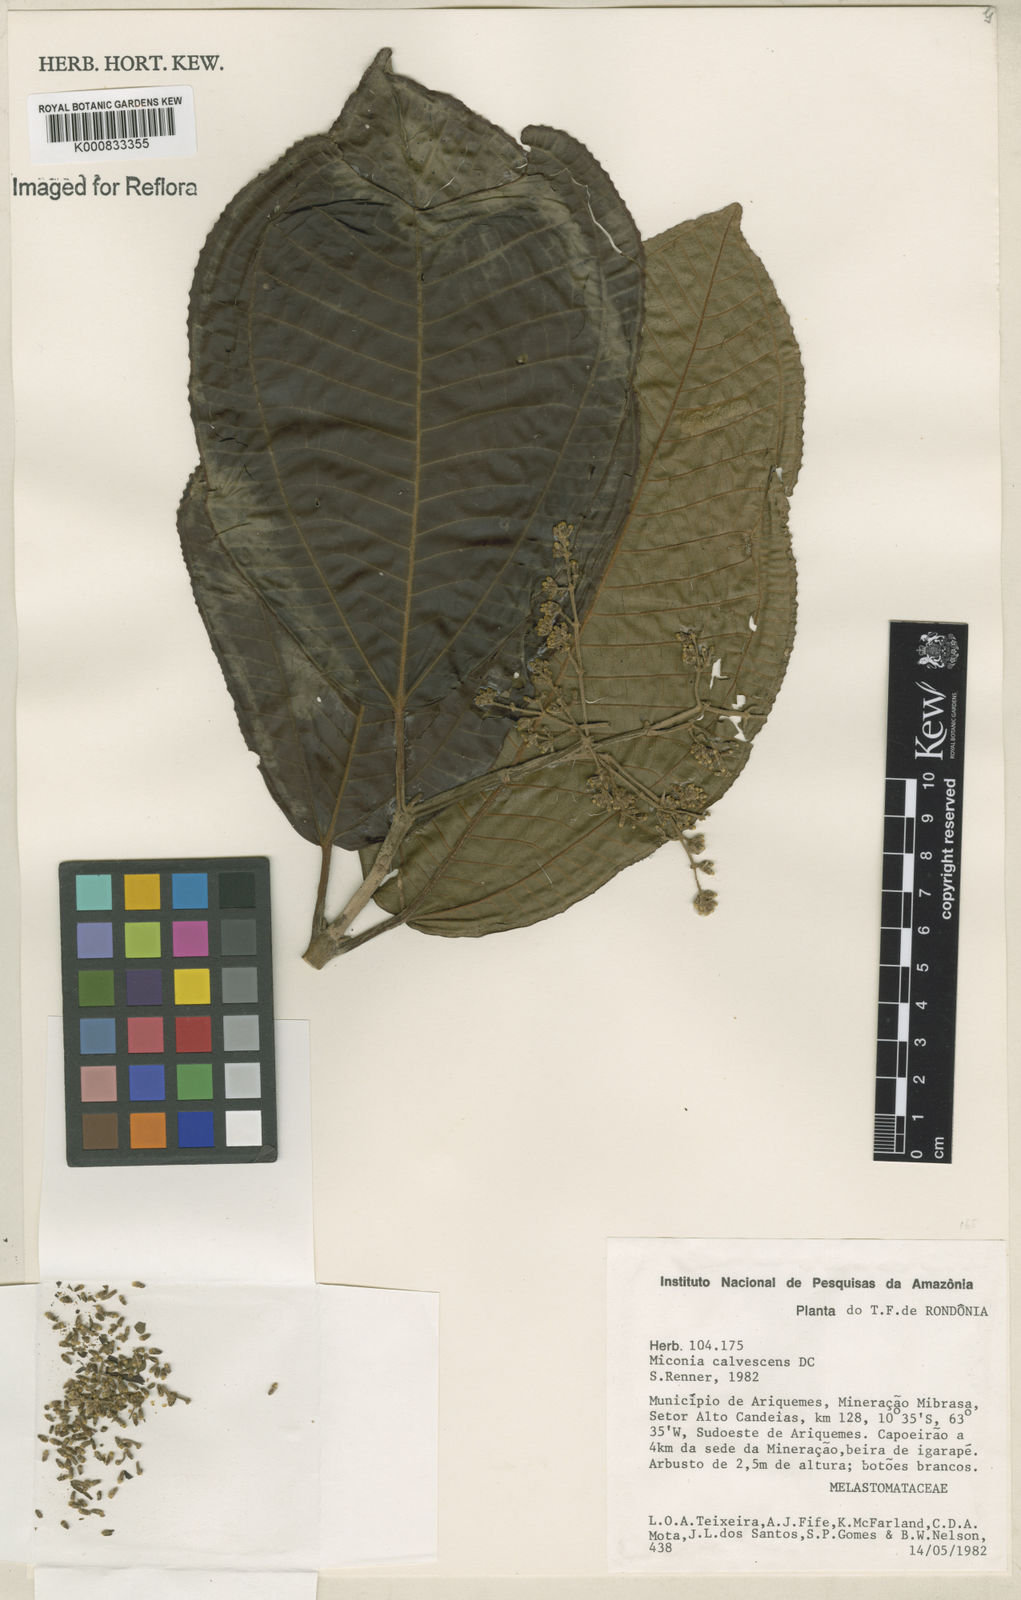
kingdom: Plantae
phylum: Tracheophyta
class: Magnoliopsida
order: Myrtales
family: Melastomataceae
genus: Miconia
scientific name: Miconia calvescens
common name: Purple plague
